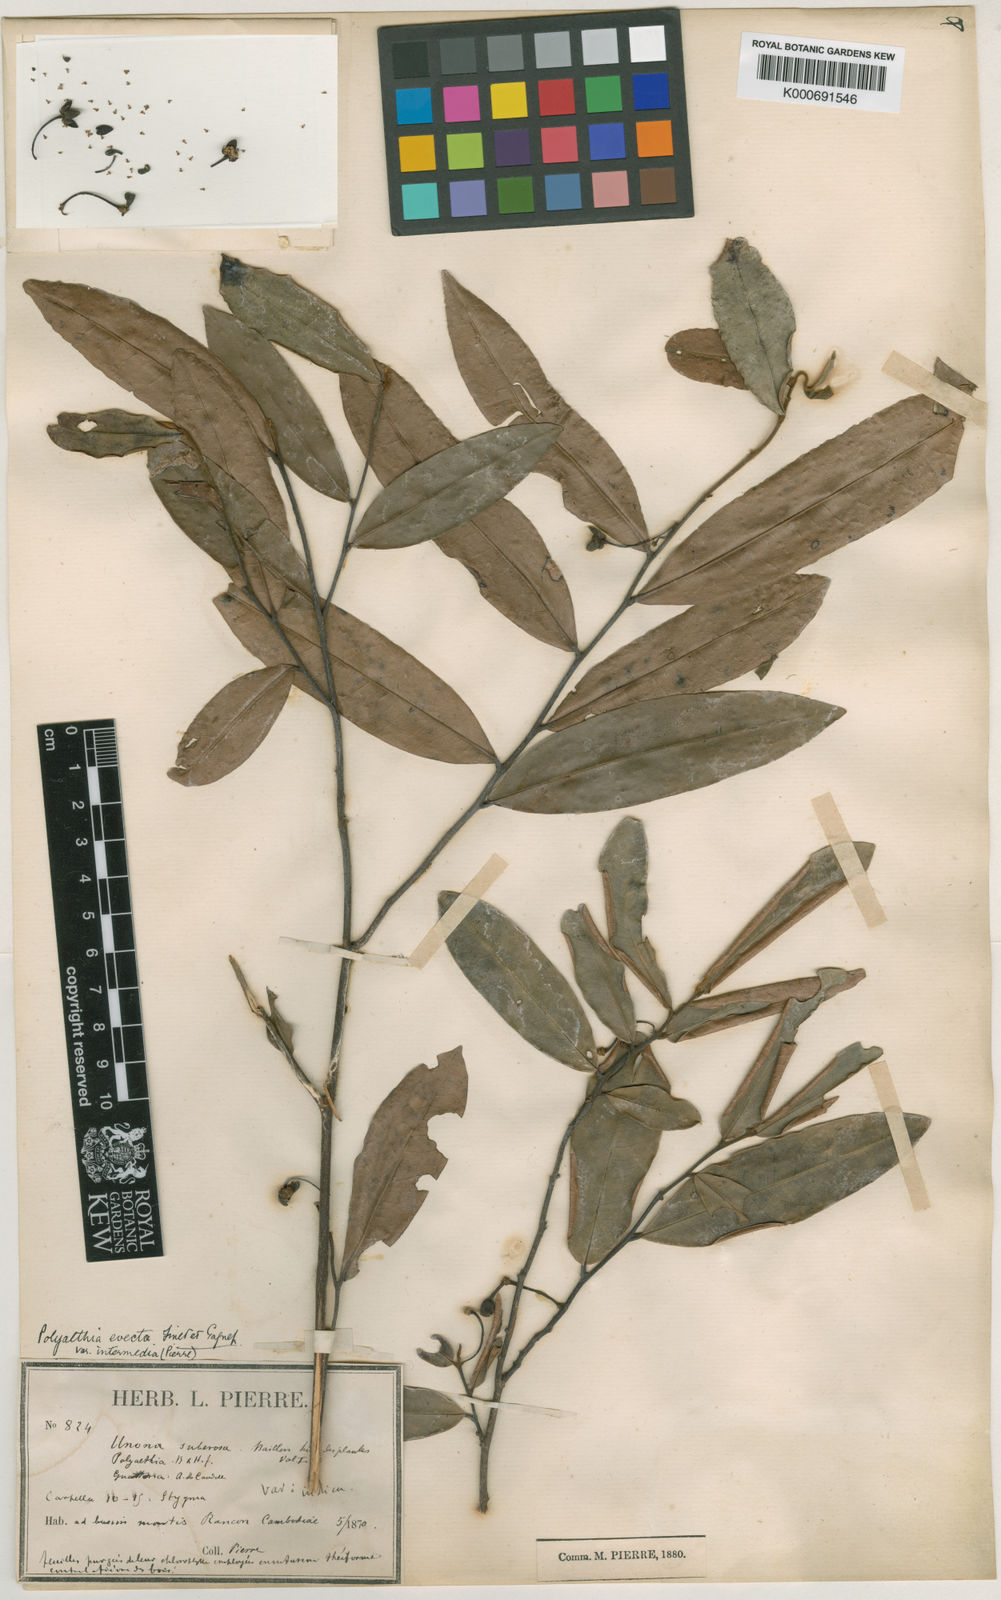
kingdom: Plantae
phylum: Tracheophyta
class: Magnoliopsida
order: Magnoliales
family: Annonaceae
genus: Polyalthia
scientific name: Polyalthia
